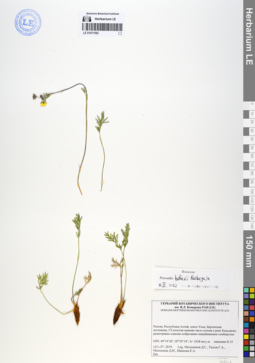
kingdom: Plantae
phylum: Tracheophyta
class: Magnoliopsida
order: Rosales
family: Rosaceae
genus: Potentilla
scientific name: Potentilla habievii
